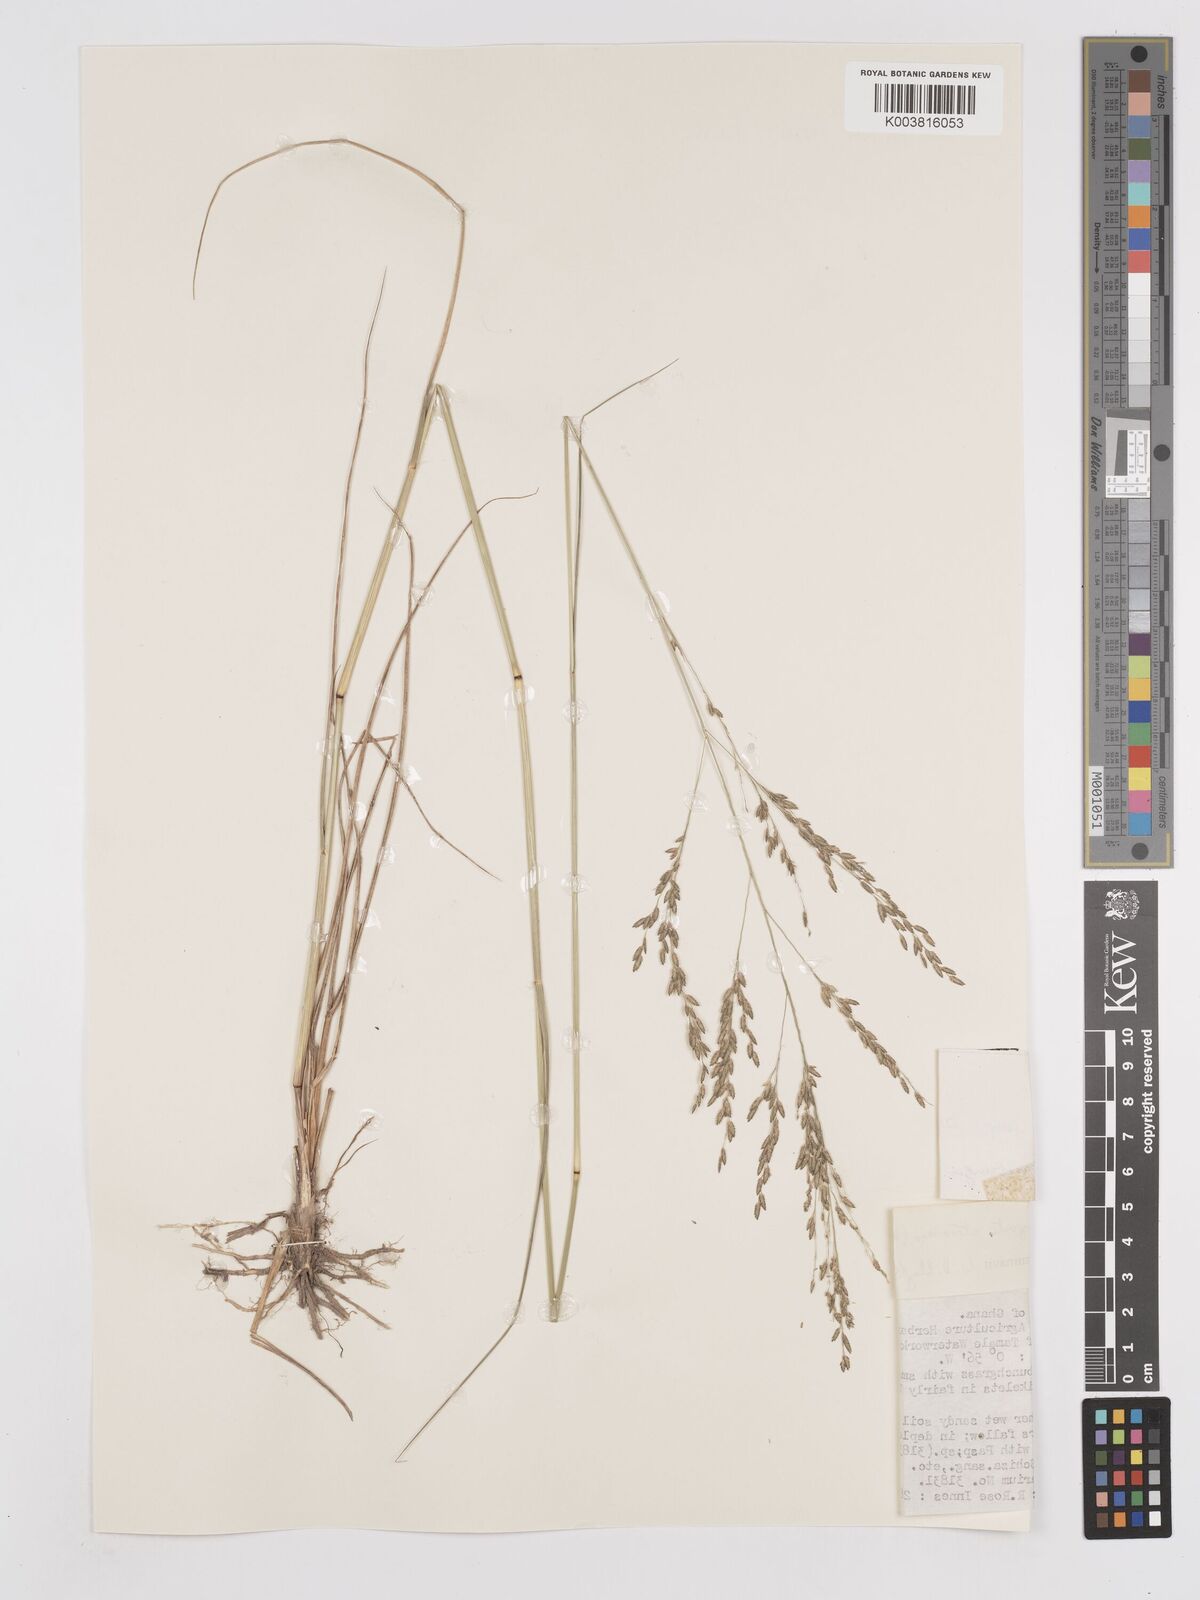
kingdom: Plantae
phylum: Tracheophyta
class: Liliopsida
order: Poales
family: Poaceae
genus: Eragrostis
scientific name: Eragrostis atrovirens
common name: Thalia lovegrass
